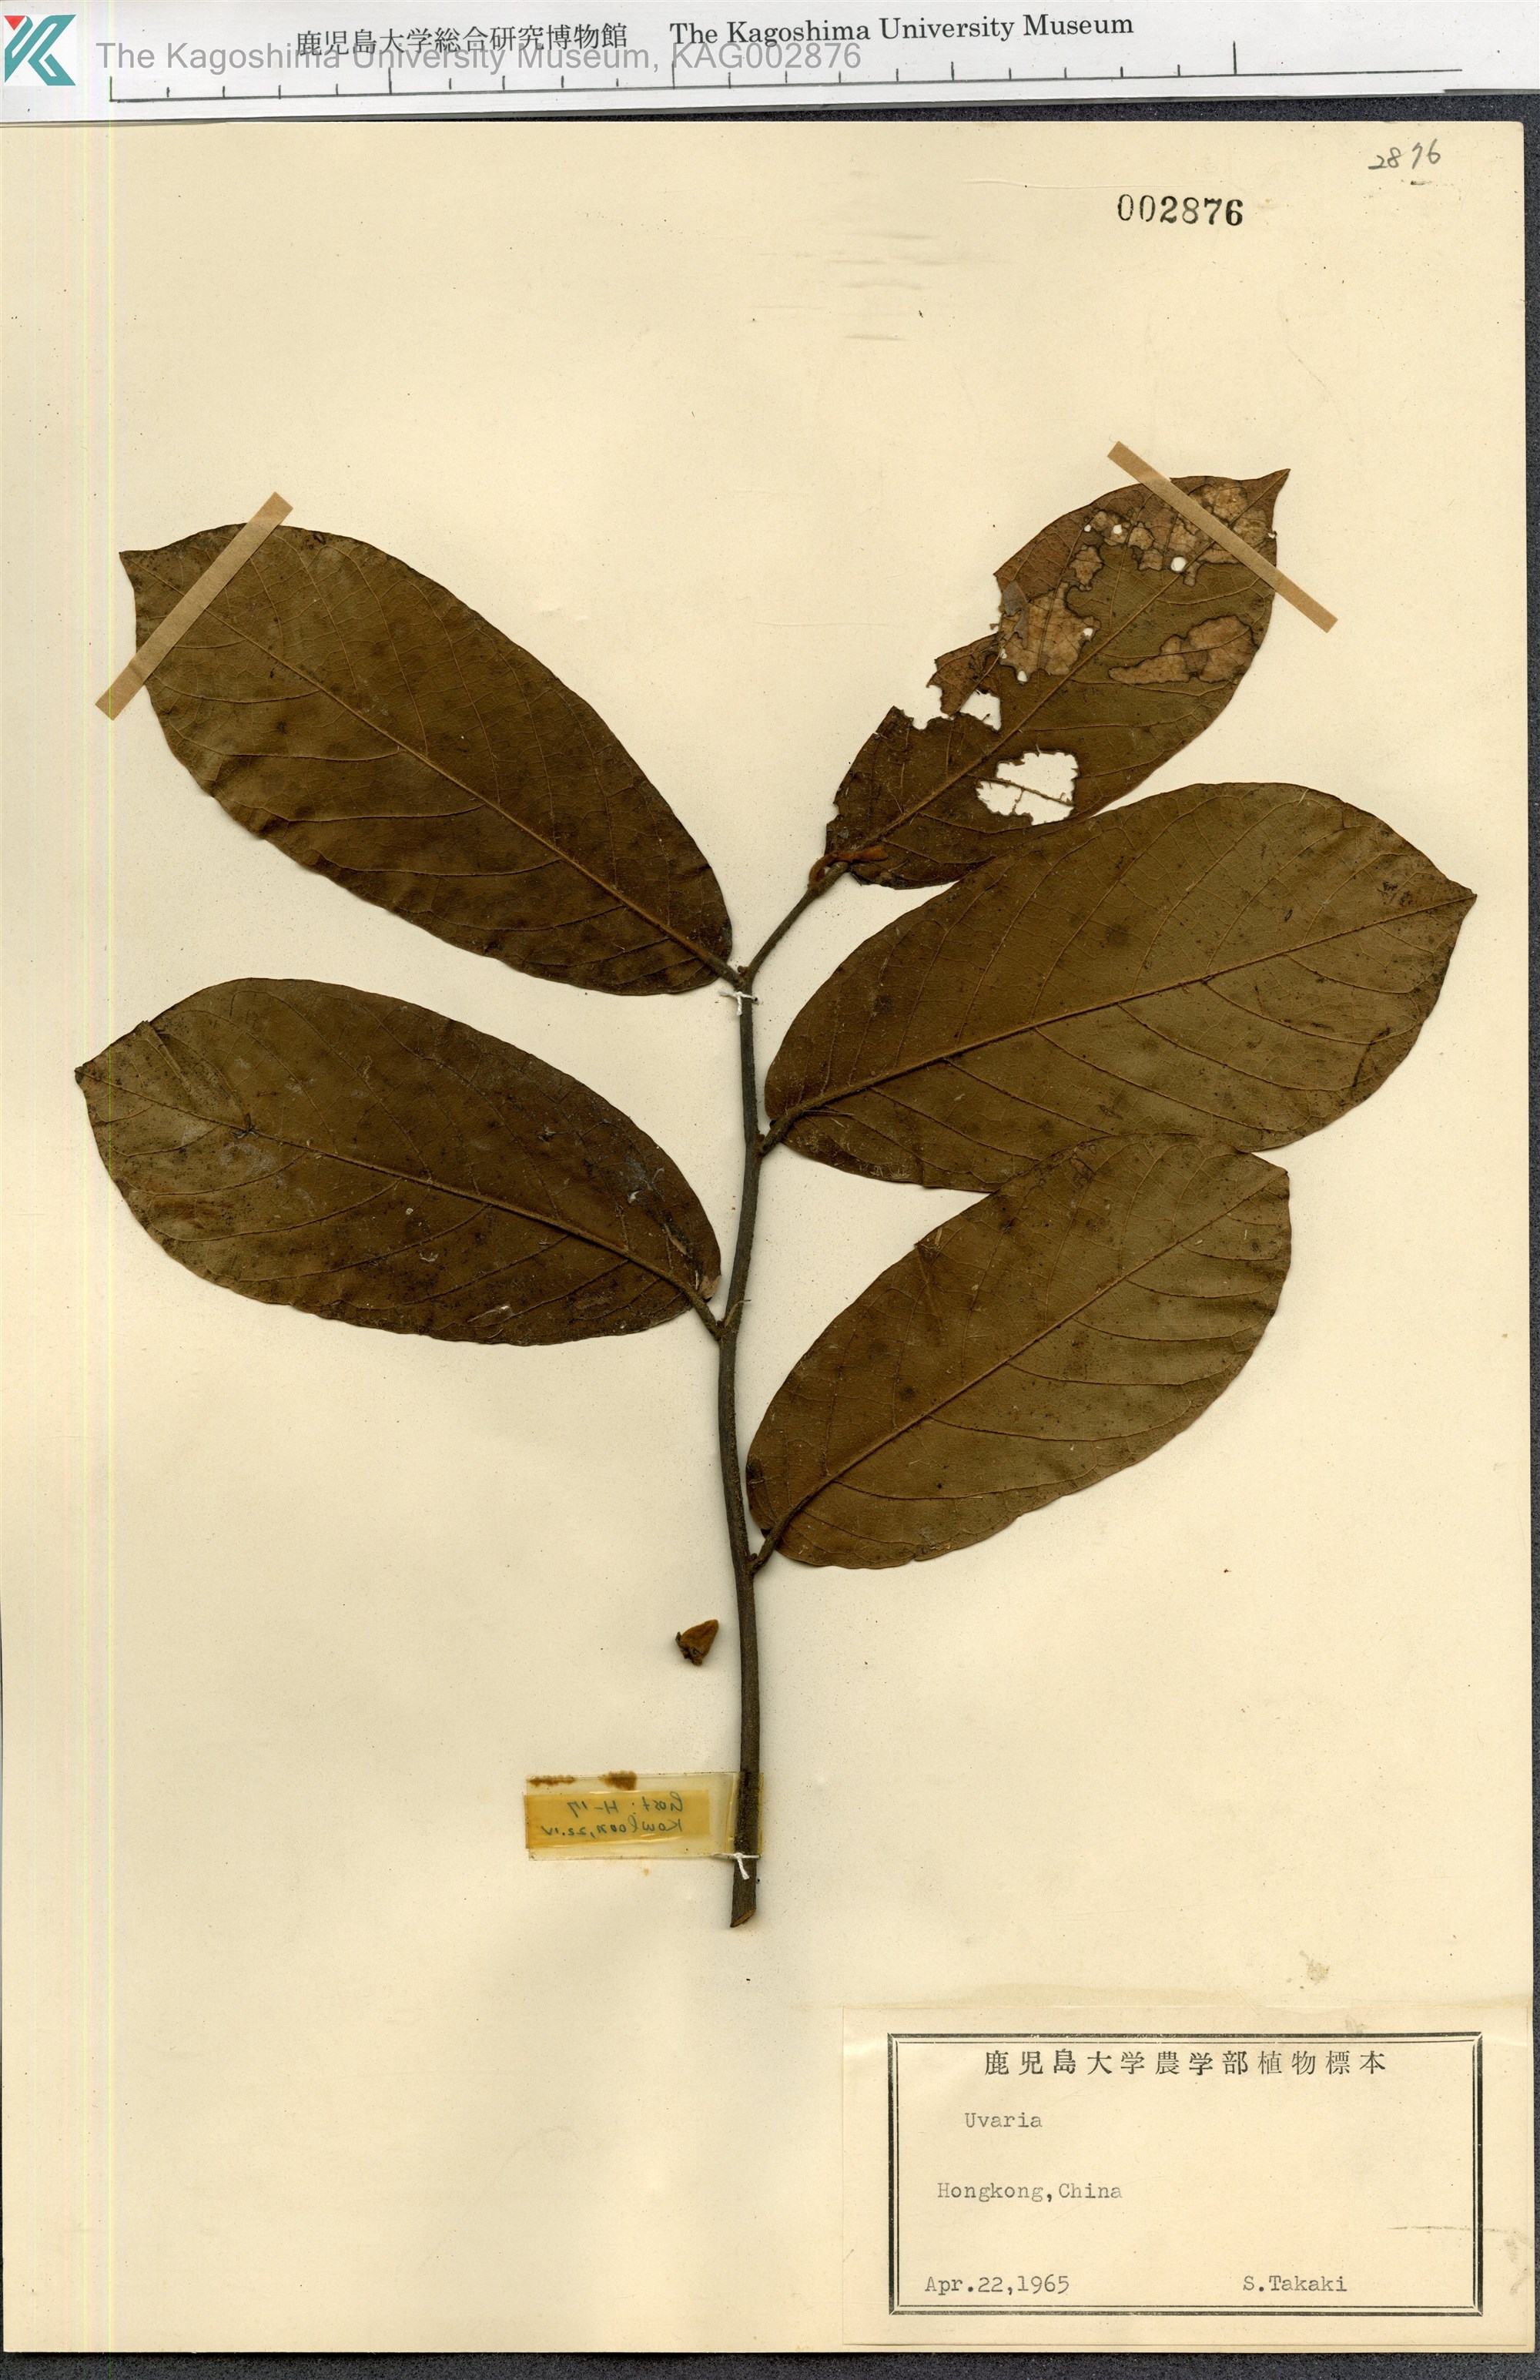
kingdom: Plantae
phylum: Tracheophyta
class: Magnoliopsida
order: Magnoliales
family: Annonaceae
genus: Uvaria
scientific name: Uvaria
